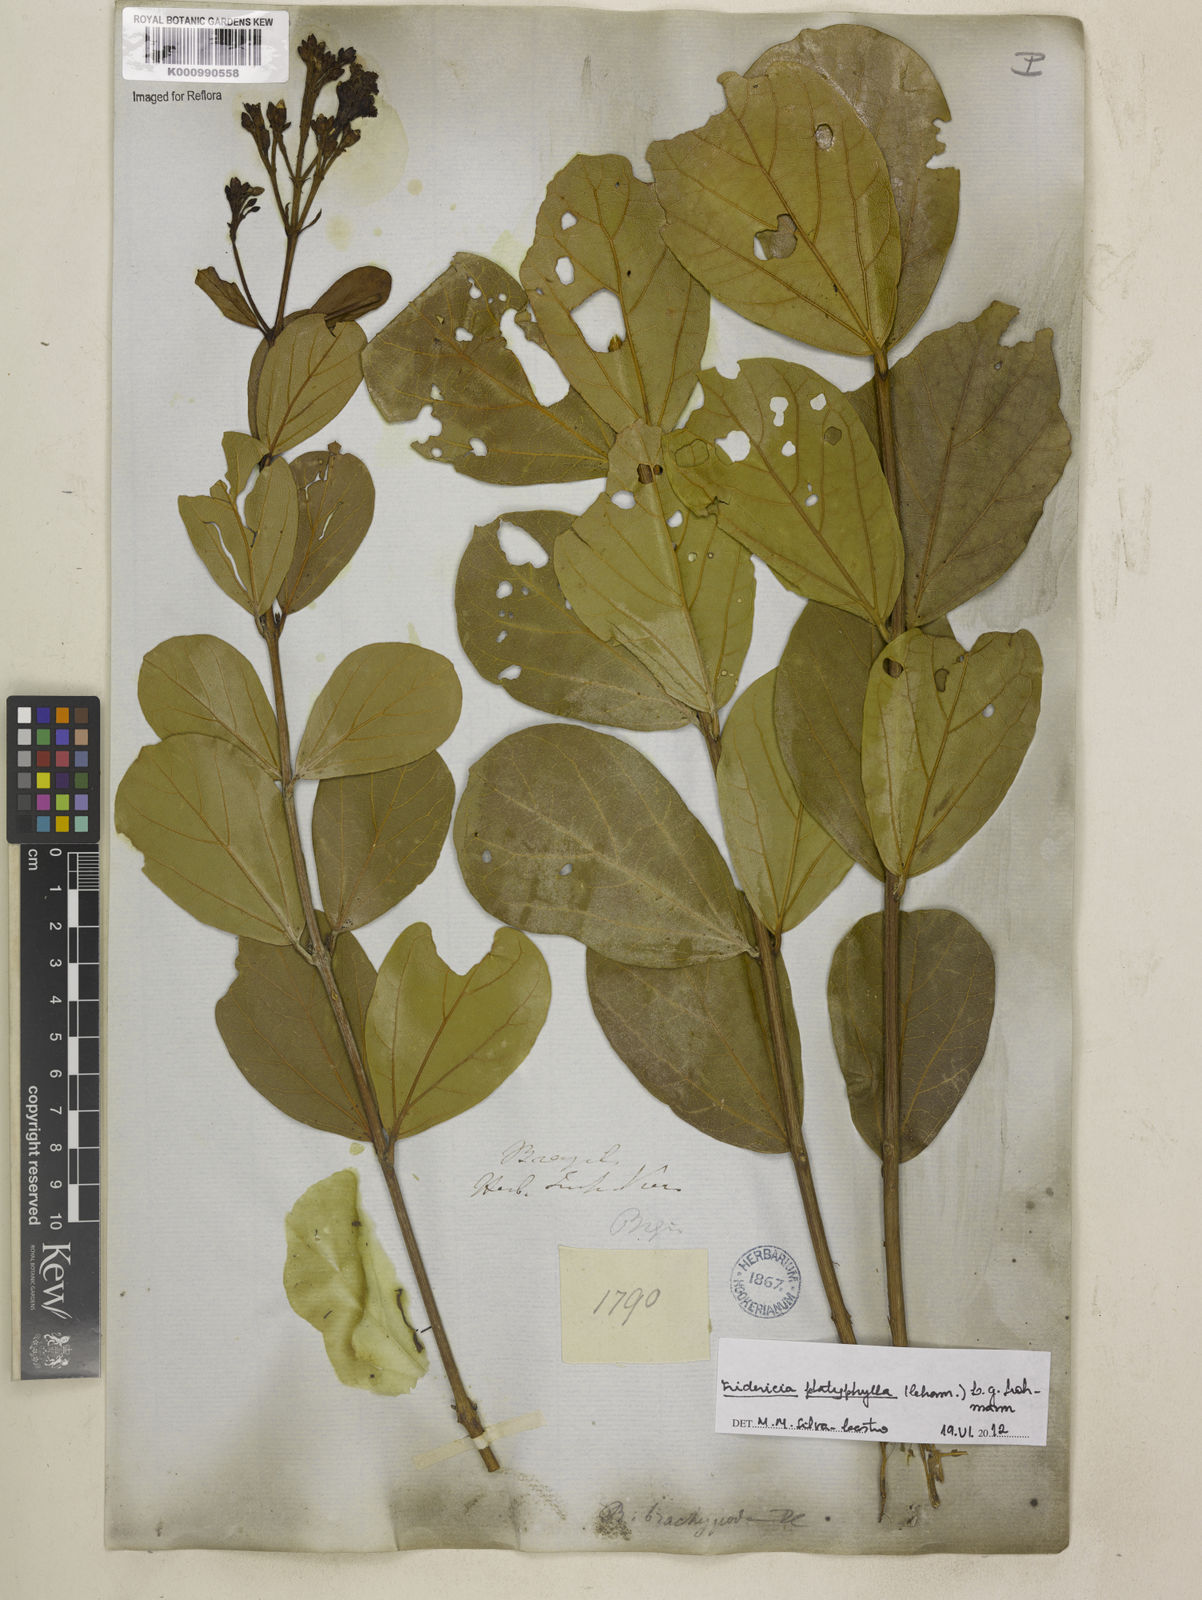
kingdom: Plantae
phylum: Tracheophyta
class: Magnoliopsida
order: Lamiales
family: Bignoniaceae
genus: Fridericia
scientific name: Fridericia platyphylla
